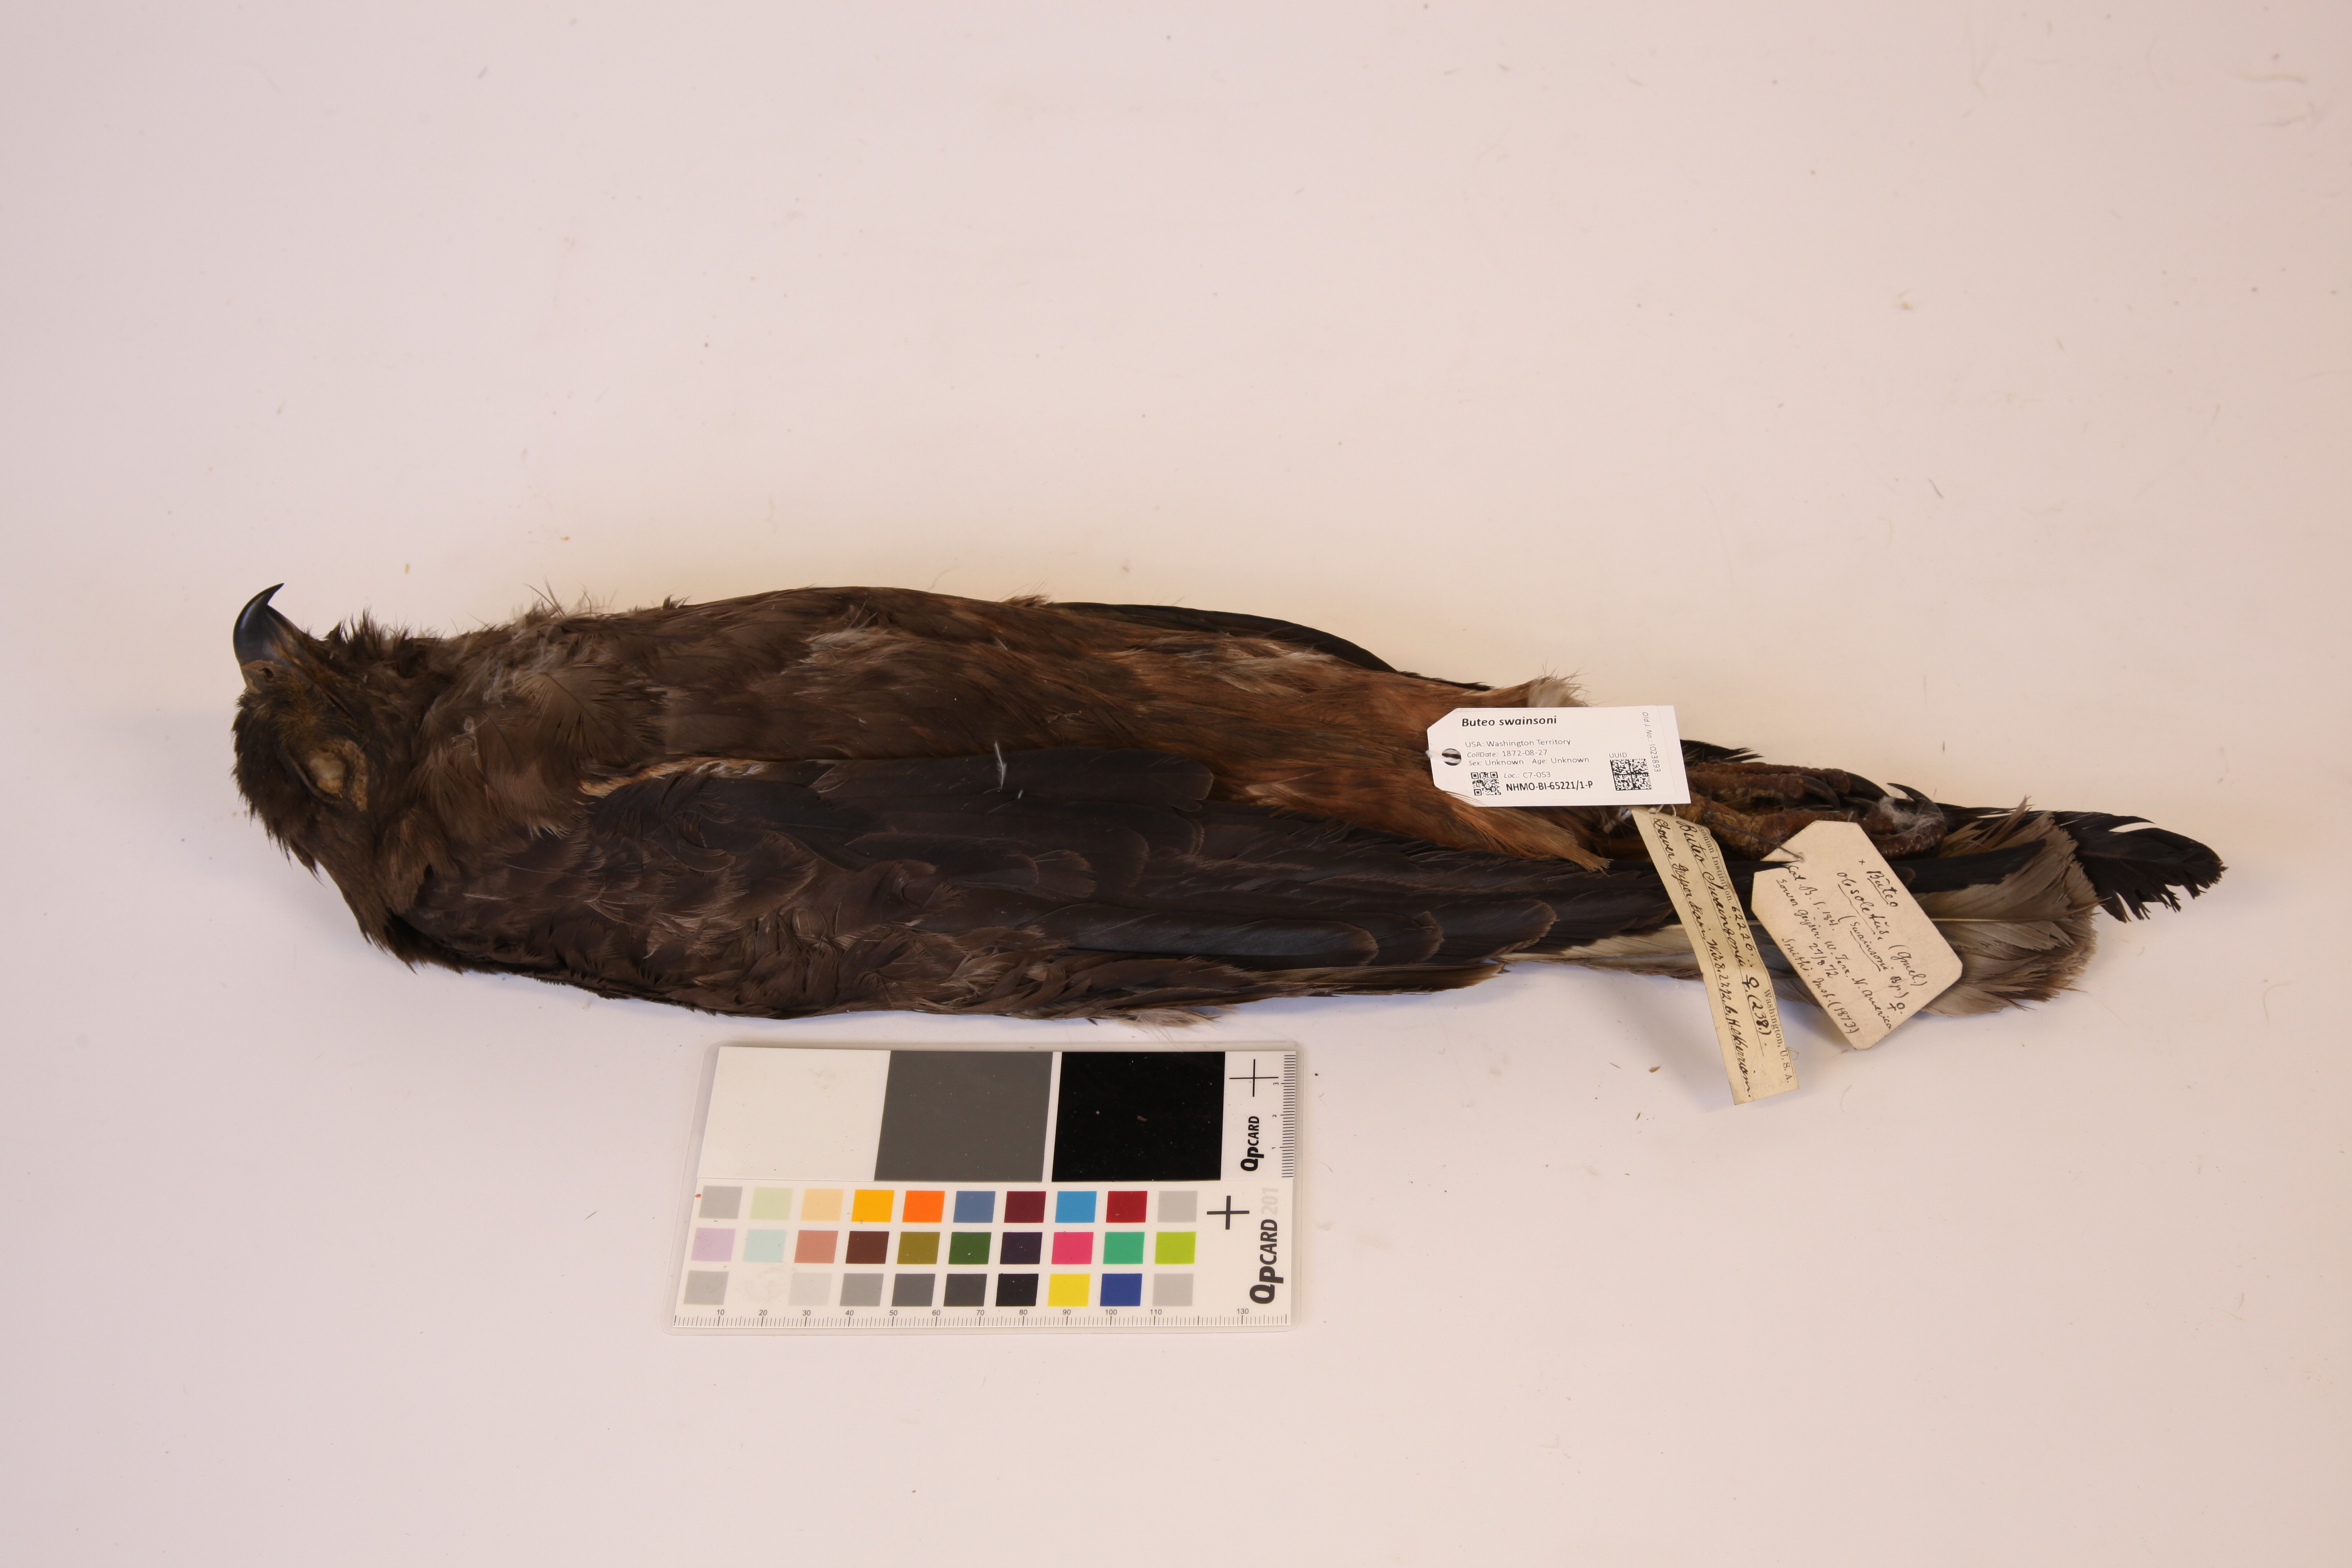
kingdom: Animalia
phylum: Chordata
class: Aves
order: Accipitriformes
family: Accipitridae
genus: Buteo
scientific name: Buteo swainsoni
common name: Swainson's hawk
